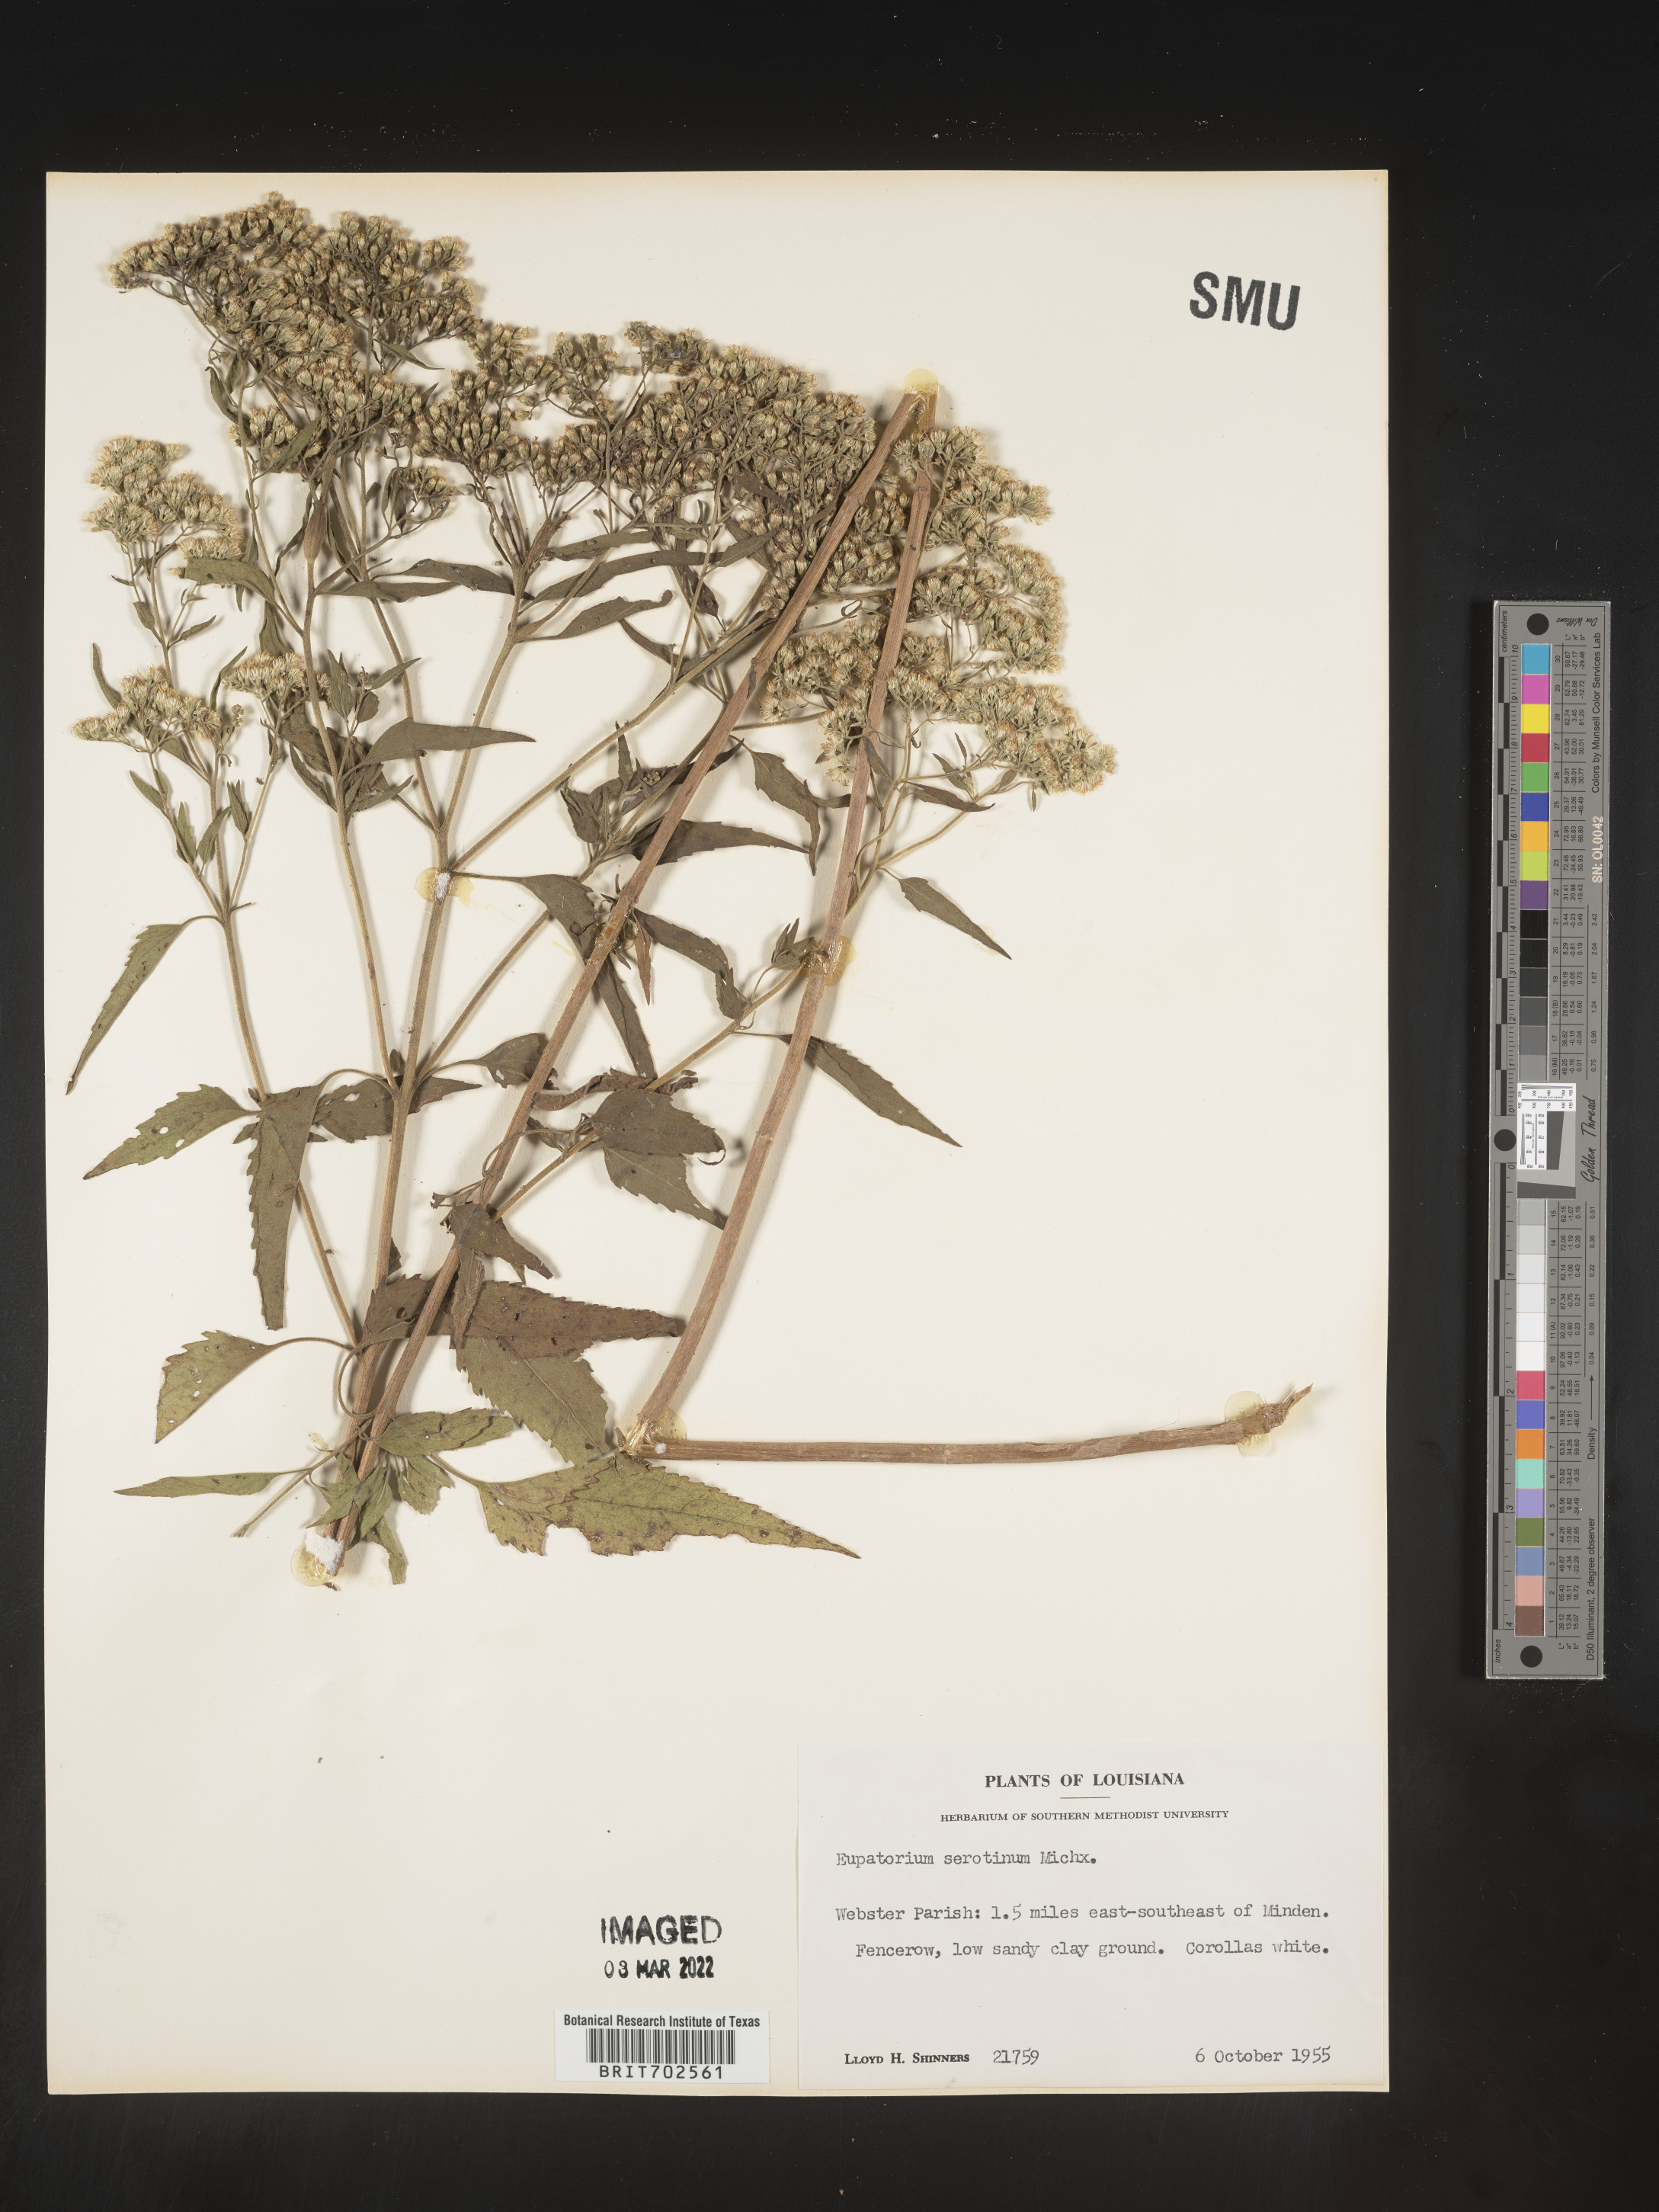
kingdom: Plantae
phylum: Tracheophyta
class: Magnoliopsida
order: Asterales
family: Asteraceae
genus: Eupatorium
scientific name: Eupatorium serotinum
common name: Late boneset
